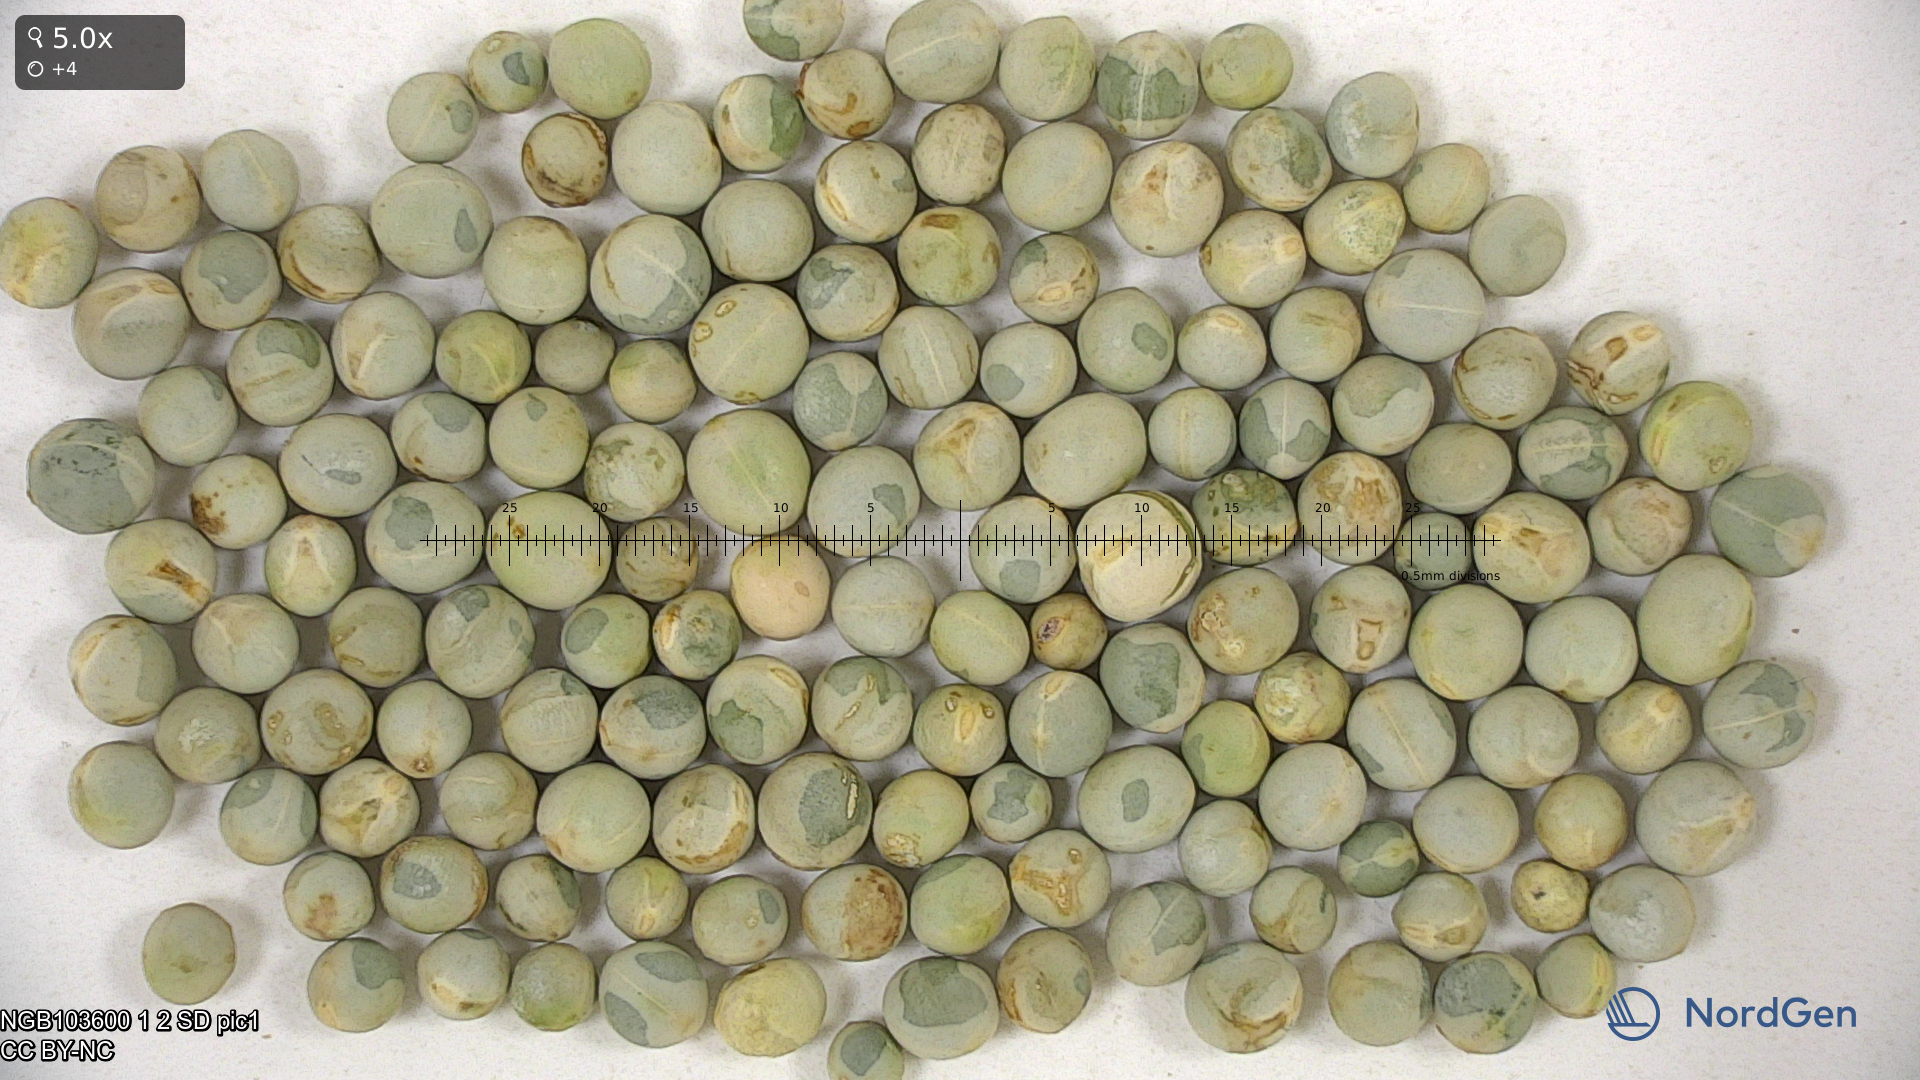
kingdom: Plantae
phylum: Tracheophyta
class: Magnoliopsida
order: Fabales
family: Fabaceae
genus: Lathyrus
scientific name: Lathyrus oleraceus
